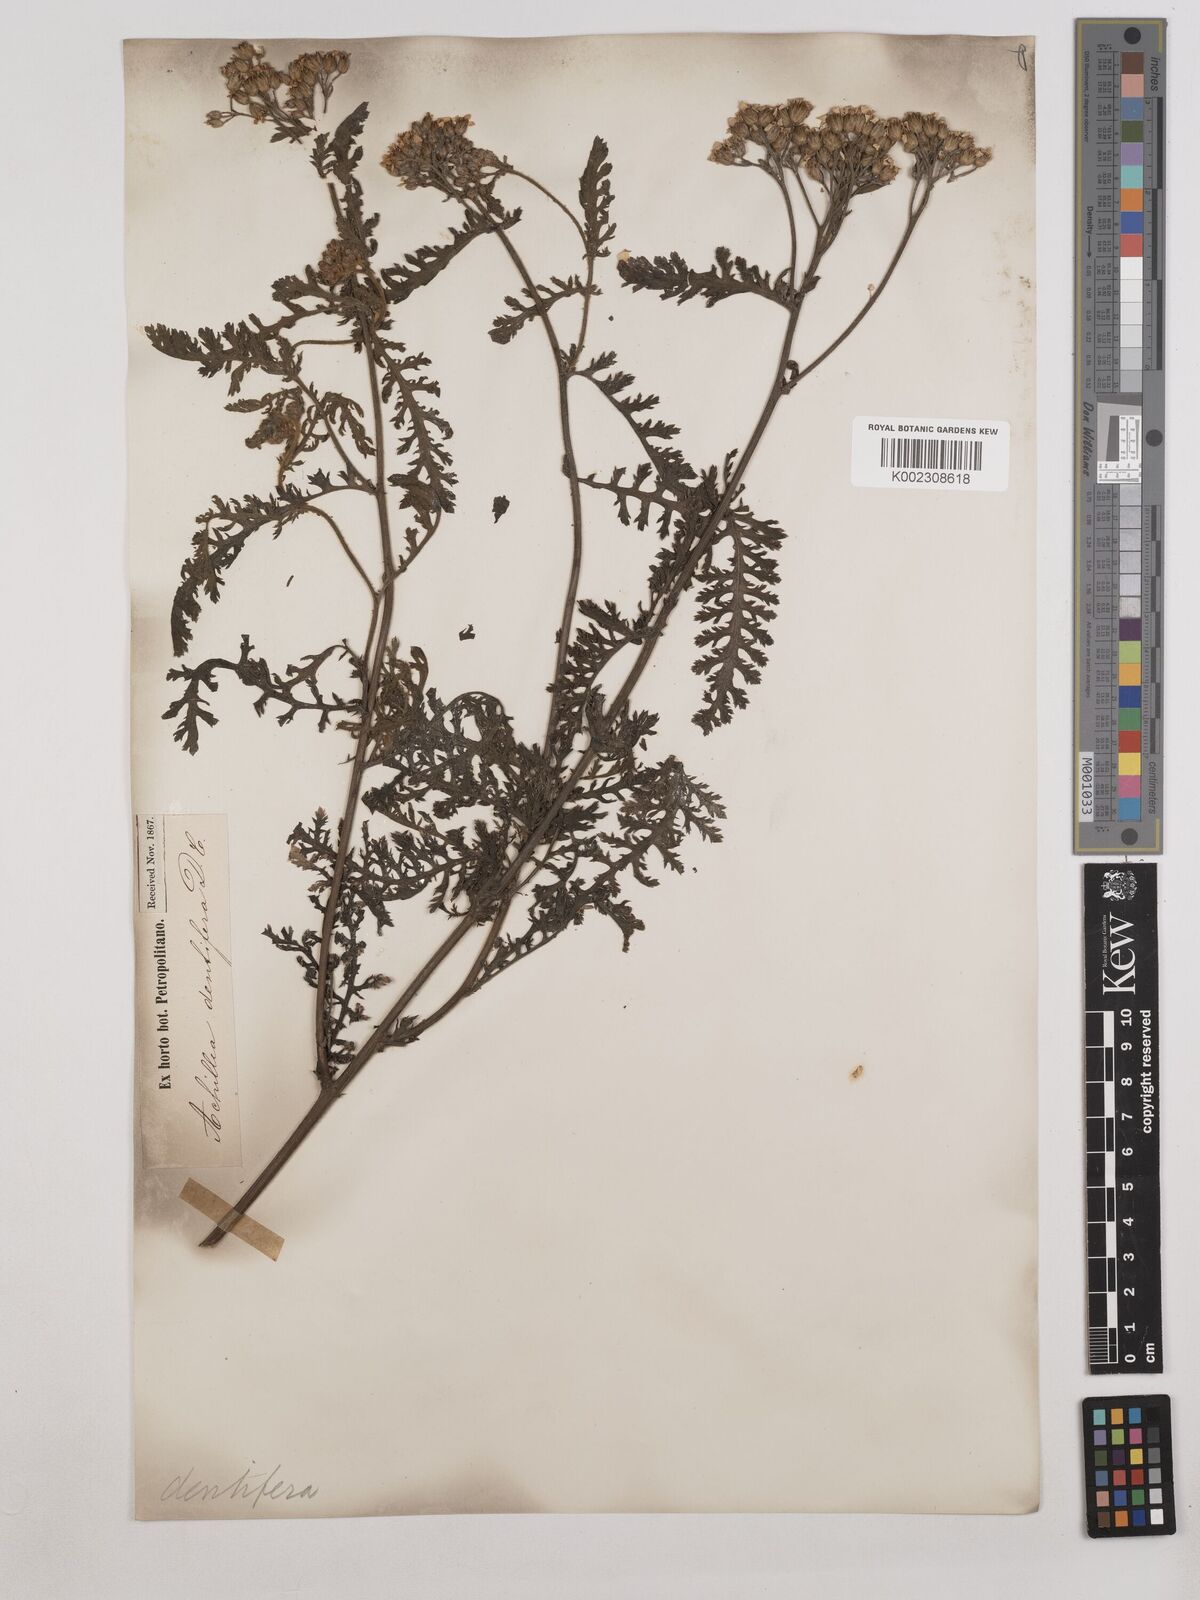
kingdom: Plantae
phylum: Tracheophyta
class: Magnoliopsida
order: Asterales
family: Asteraceae
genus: Achillea
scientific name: Achillea distans
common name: Tall yarrow
